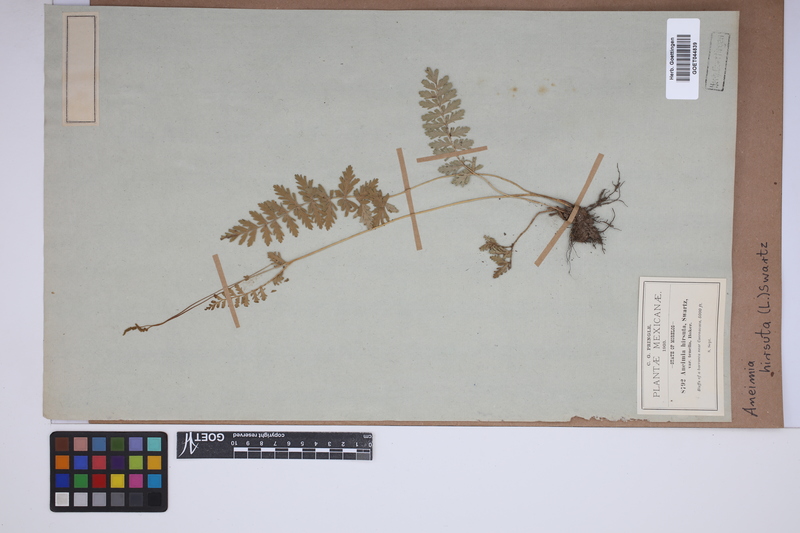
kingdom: Plantae
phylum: Tracheophyta
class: Polypodiopsida
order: Schizaeales
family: Anemiaceae
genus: Anemia
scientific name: Anemia hirsuta
